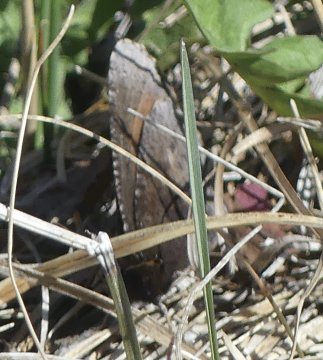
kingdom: Animalia
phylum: Arthropoda
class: Insecta
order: Lepidoptera
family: Nymphalidae
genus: Erebia
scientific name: Erebia discoidalis
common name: Red-disked Alpine
